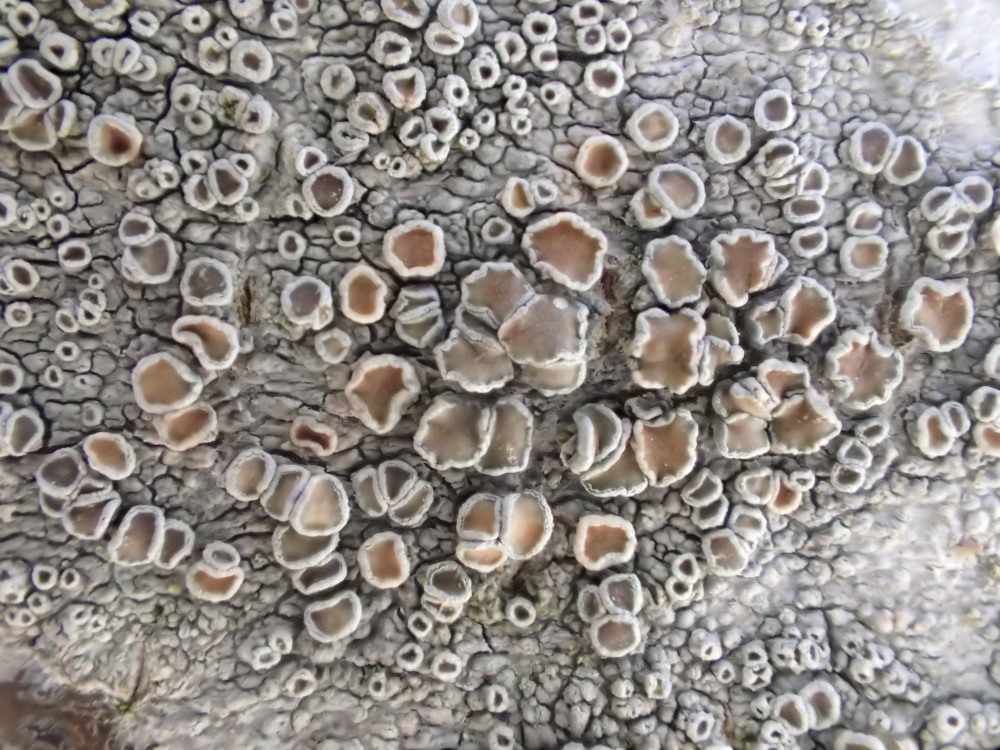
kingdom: Fungi
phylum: Ascomycota
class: Lecanoromycetes
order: Lecanorales
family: Lecanoraceae
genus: Lecanora
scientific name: Lecanora chlarotera
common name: brun kantskivelav
